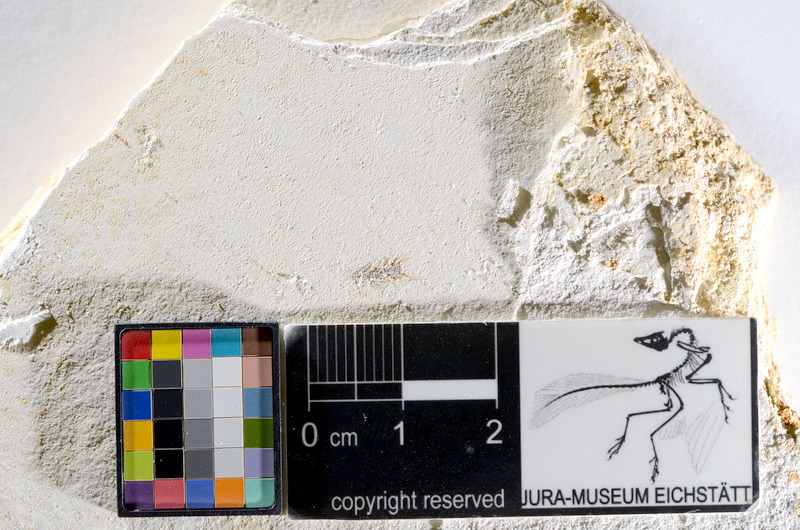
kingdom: Animalia
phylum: Chordata
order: Salmoniformes
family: Orthogonikleithridae
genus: Orthogonikleithrus
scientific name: Orthogonikleithrus hoelli
